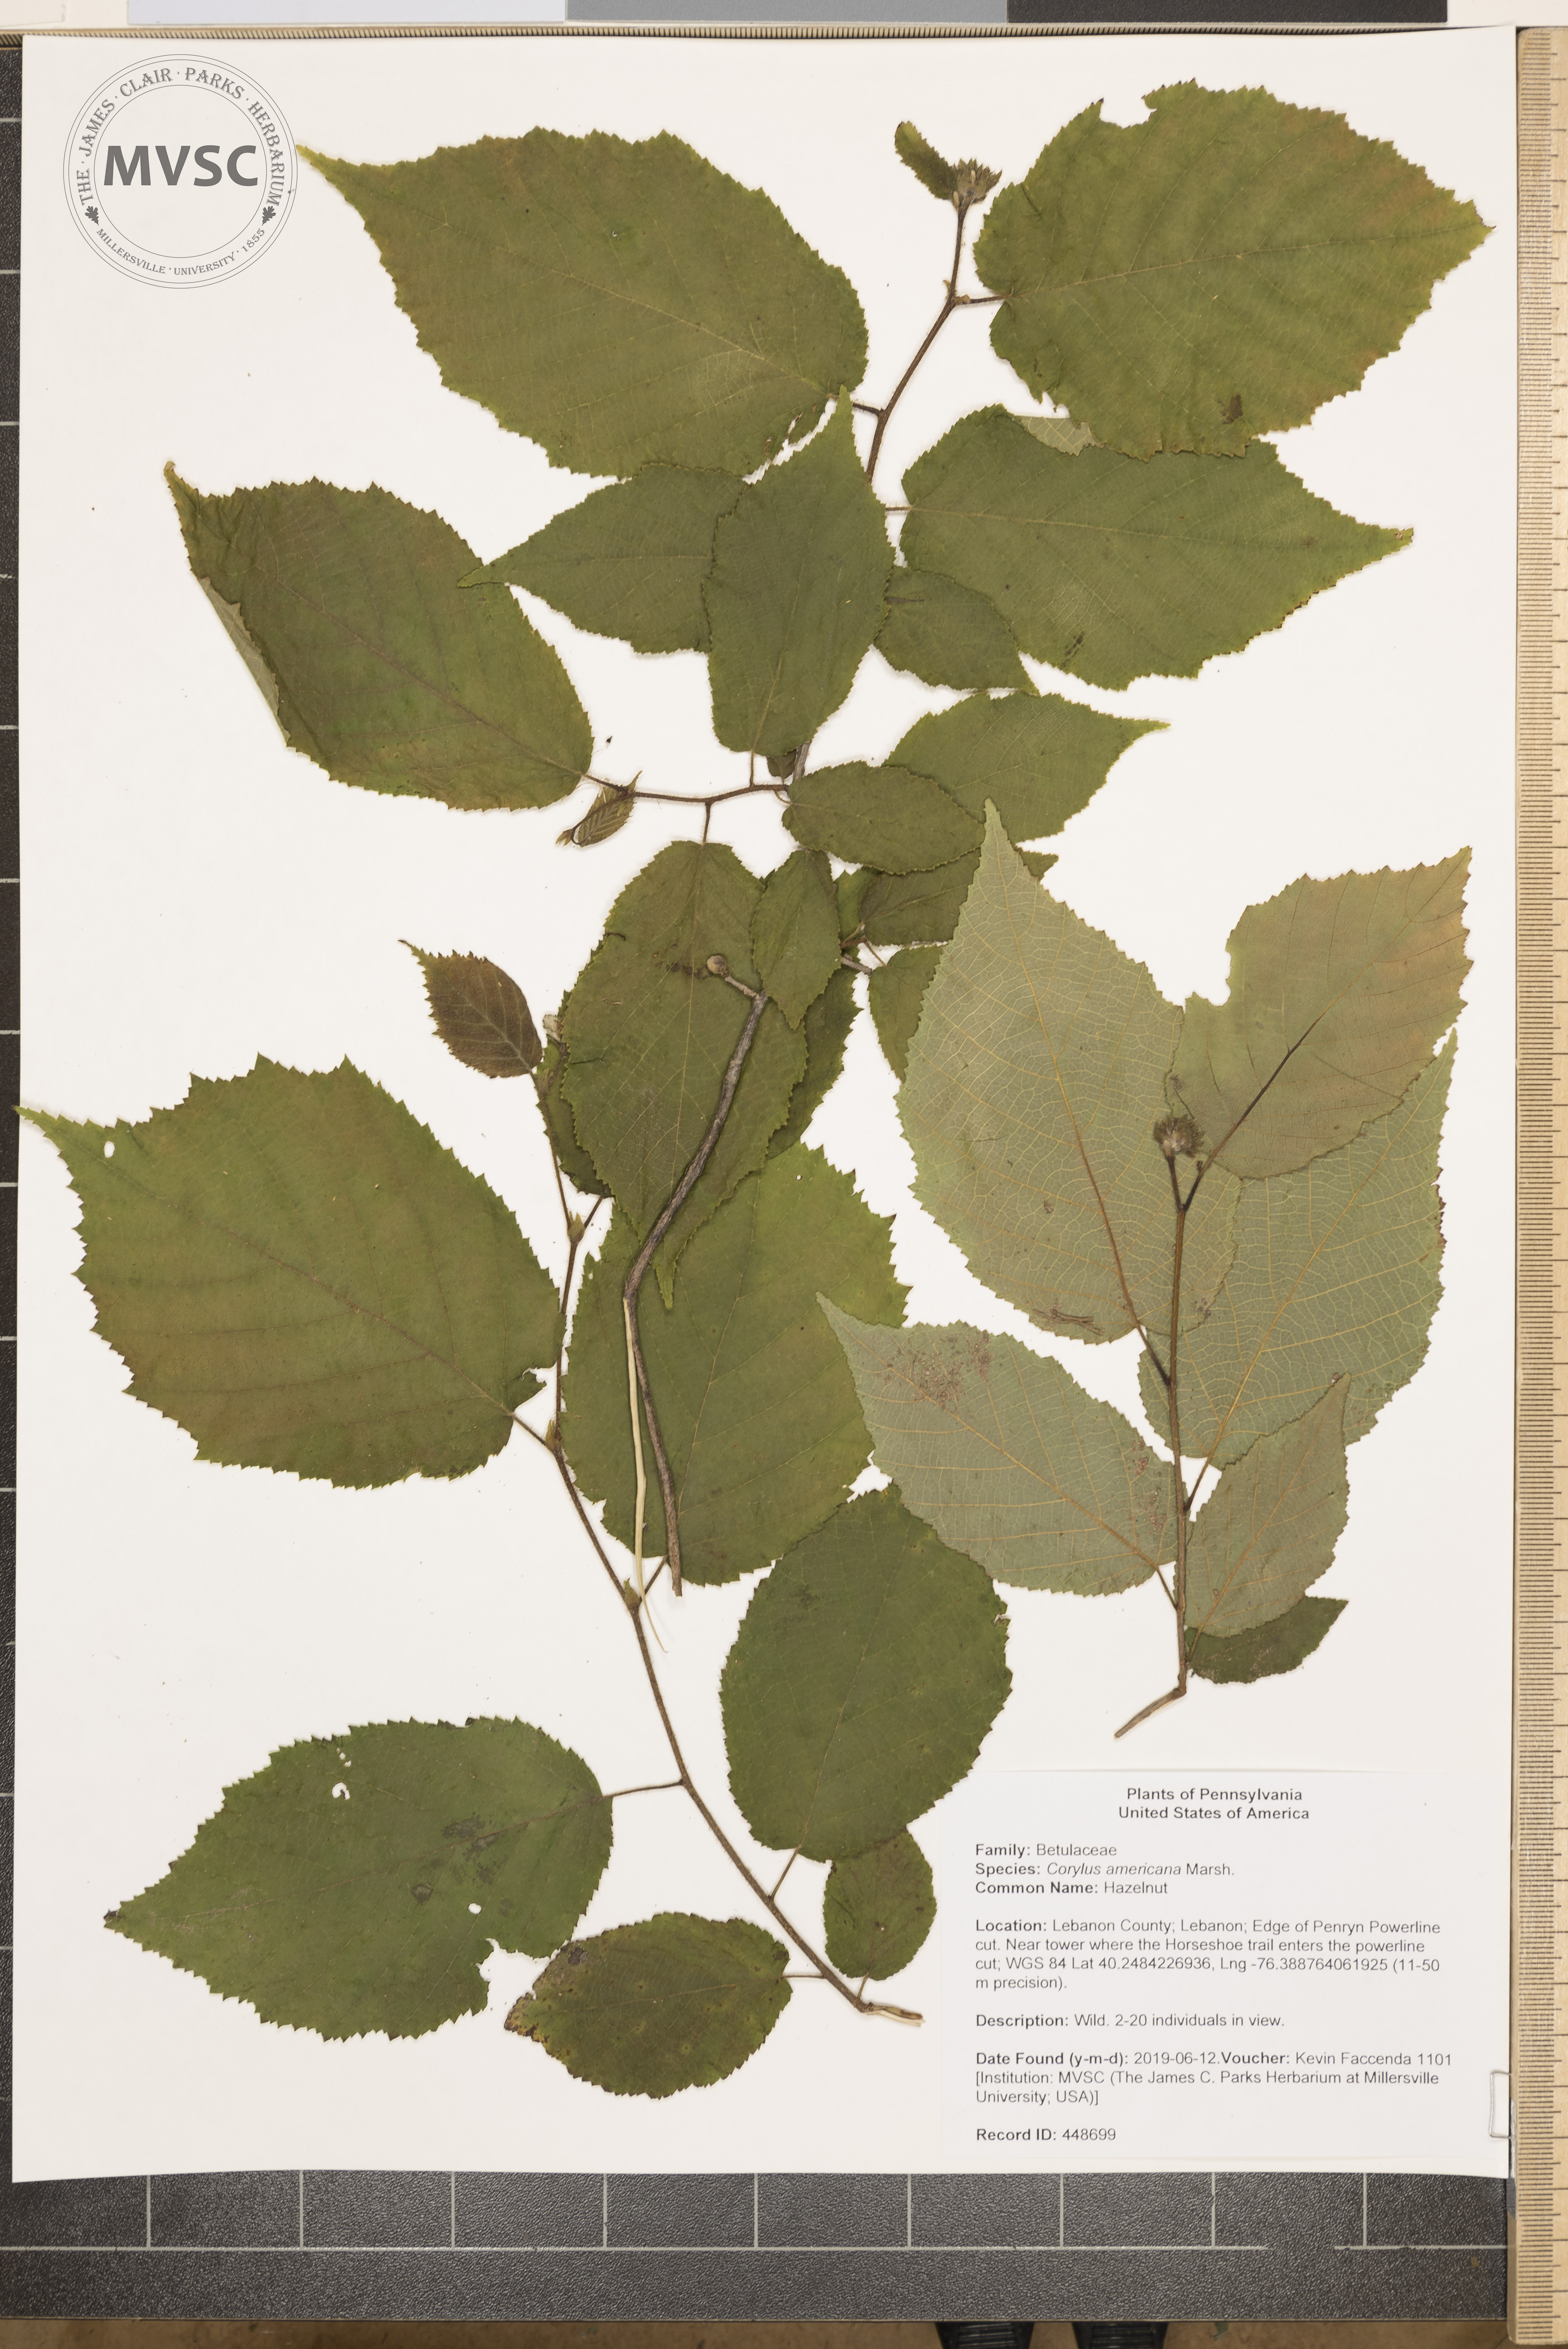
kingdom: Plantae
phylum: Tracheophyta
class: Magnoliopsida
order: Fagales
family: Betulaceae
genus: Corylus
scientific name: Corylus americana
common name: Hazelnut
